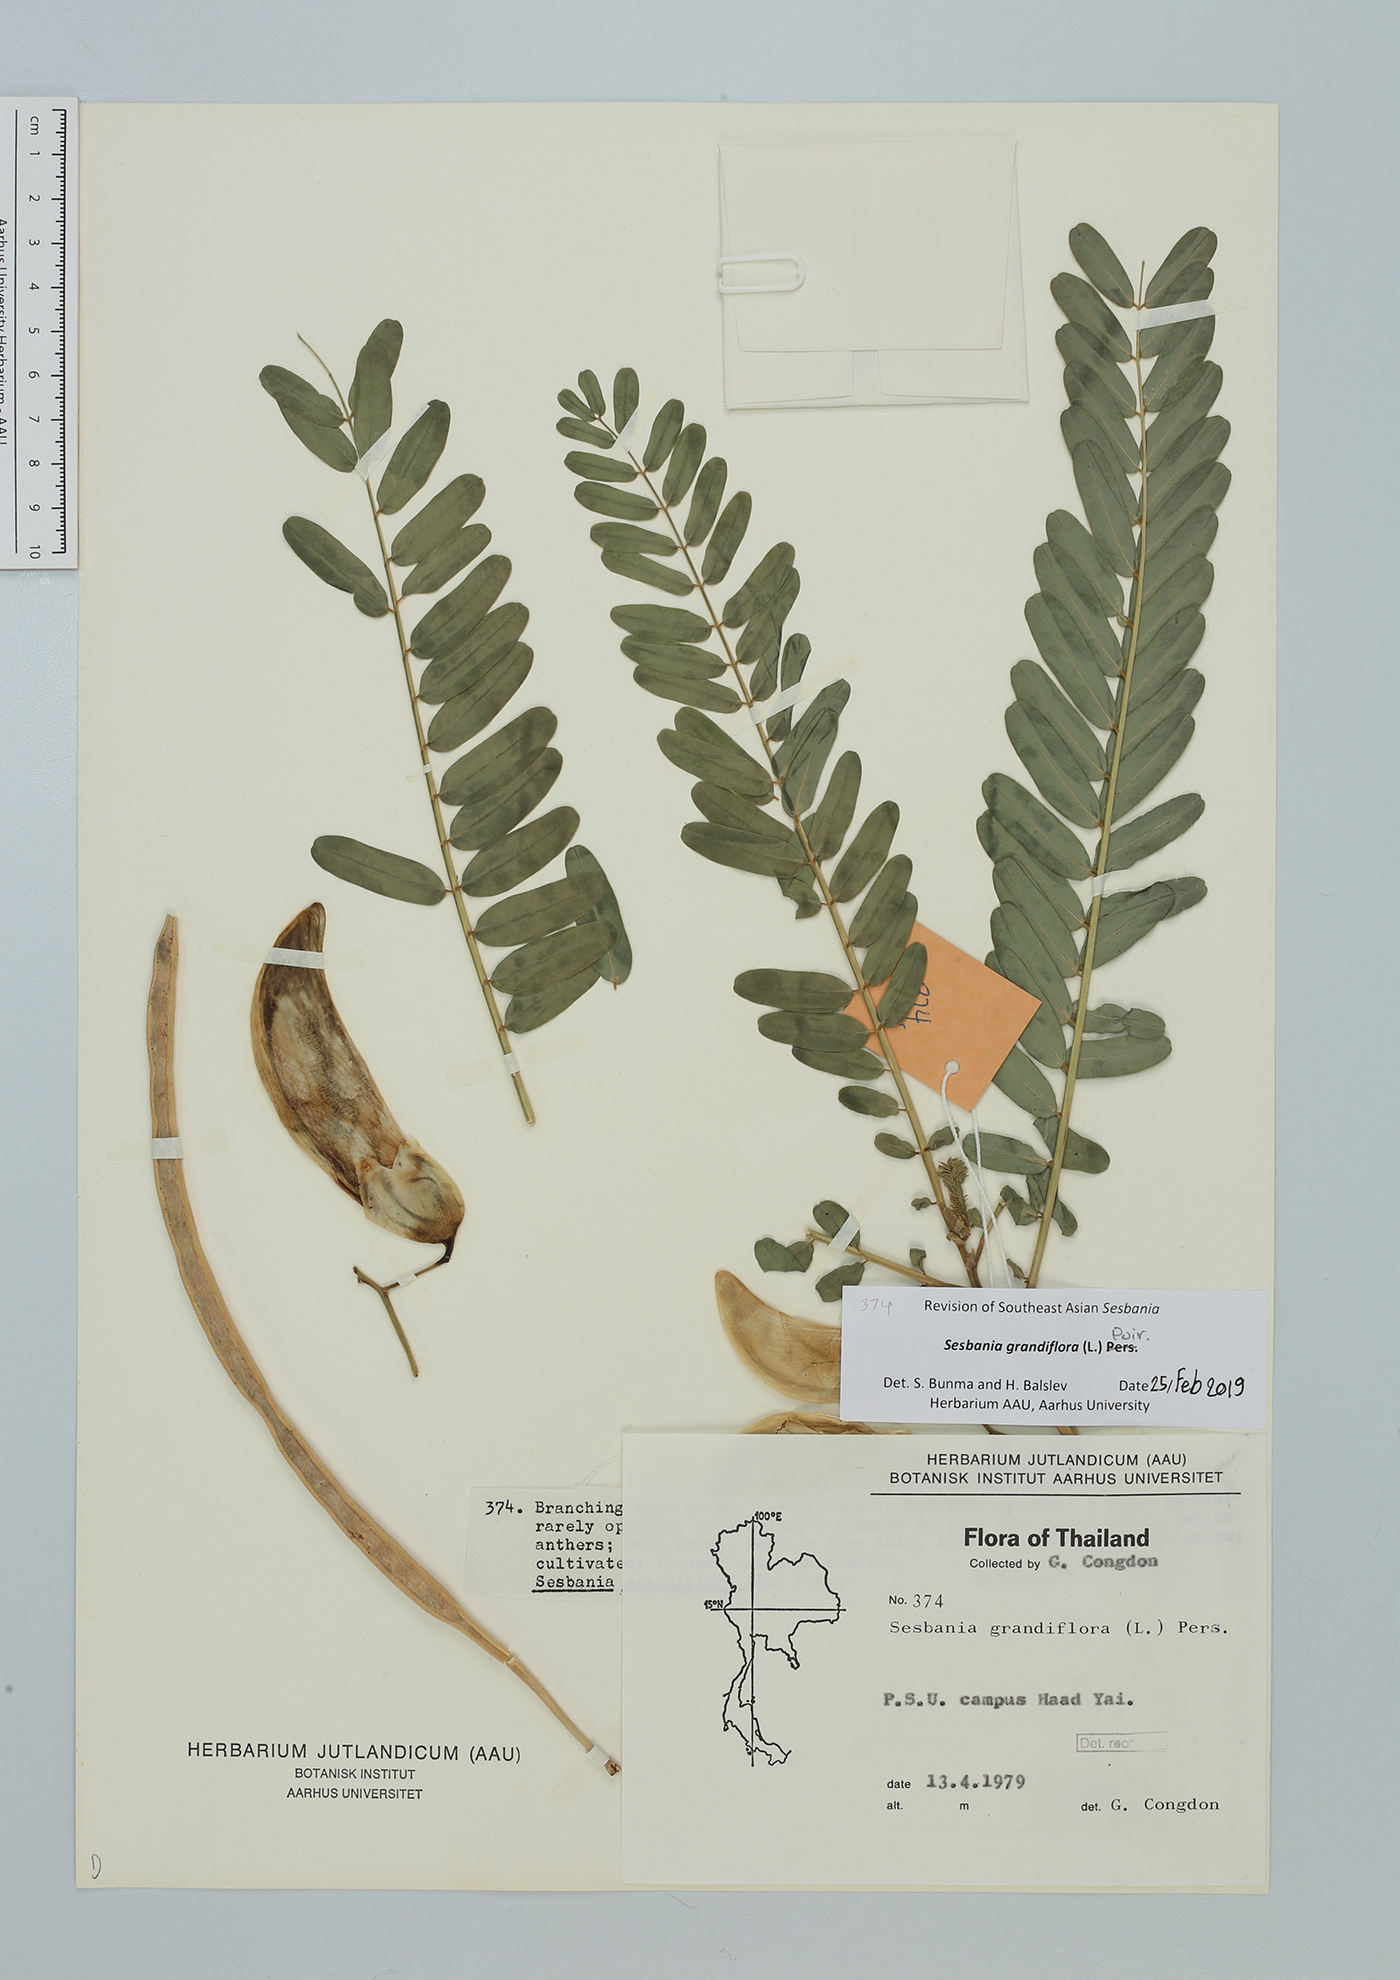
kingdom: Plantae
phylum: Tracheophyta
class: Magnoliopsida
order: Fabales
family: Fabaceae
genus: Sesbania
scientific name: Sesbania grandiflora
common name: Vegetable-hummingbird
